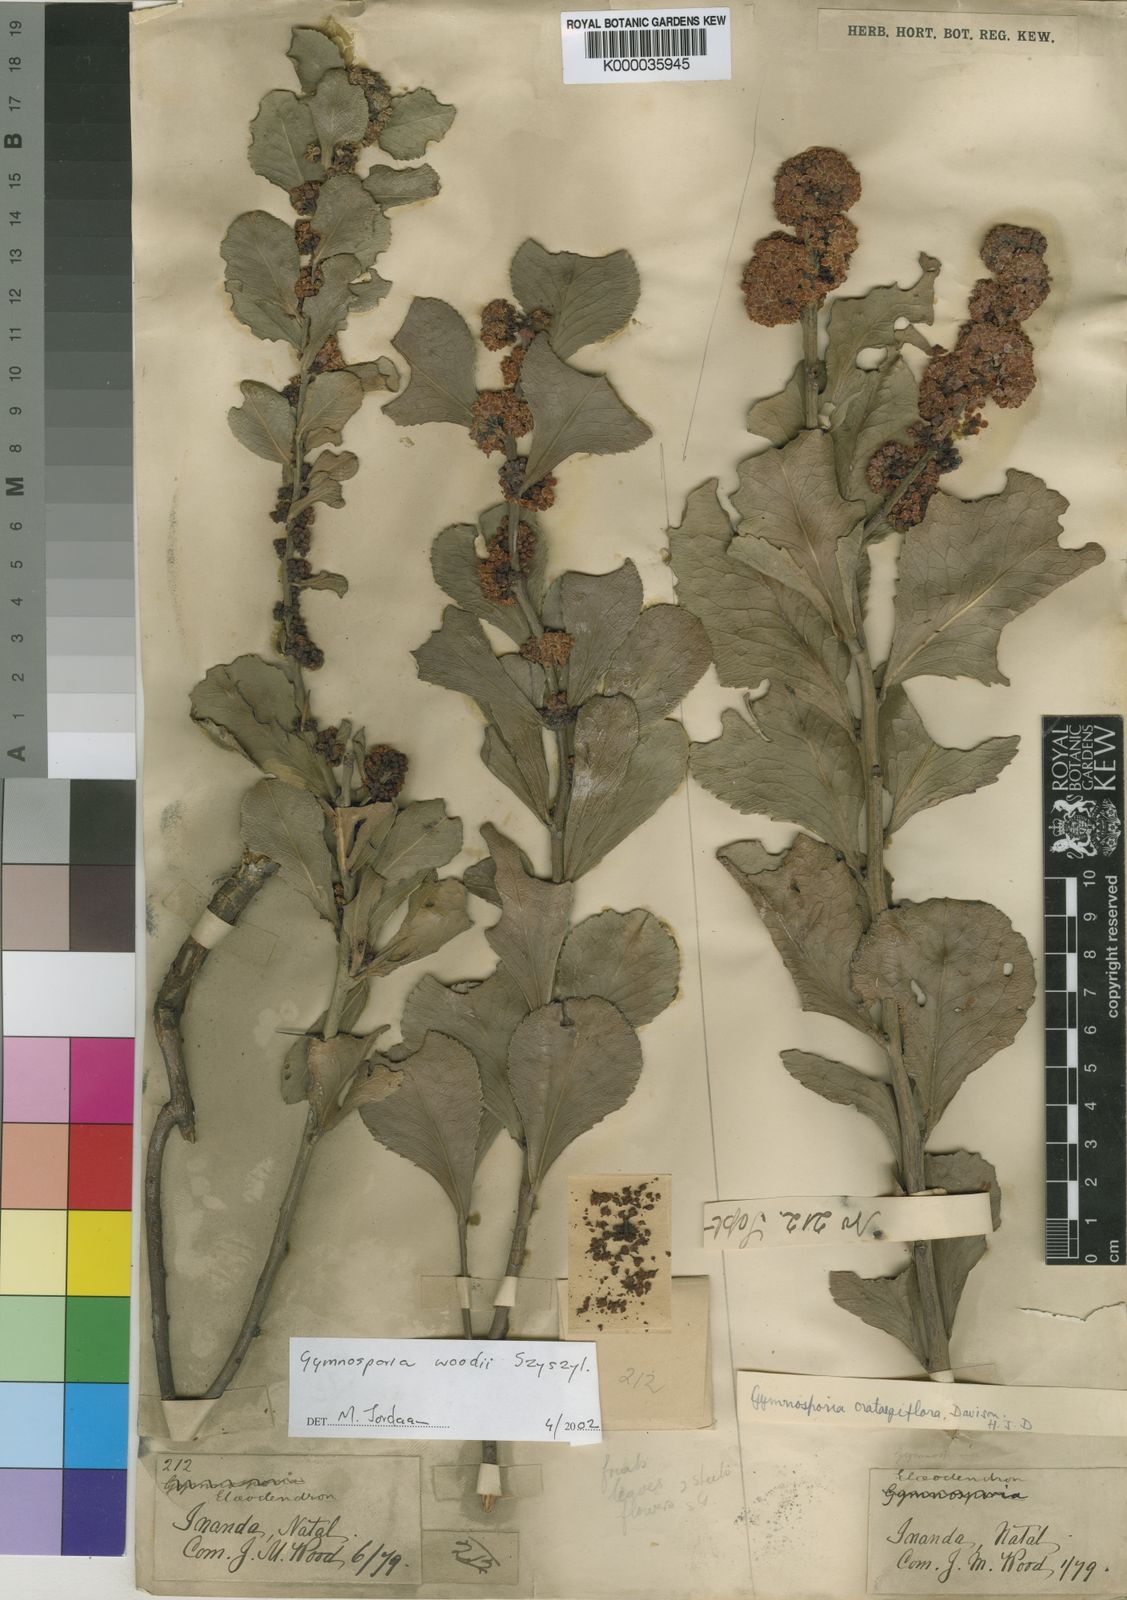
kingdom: Plantae
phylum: Tracheophyta
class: Magnoliopsida
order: Celastrales
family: Celastraceae
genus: Maytenus
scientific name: Maytenus
